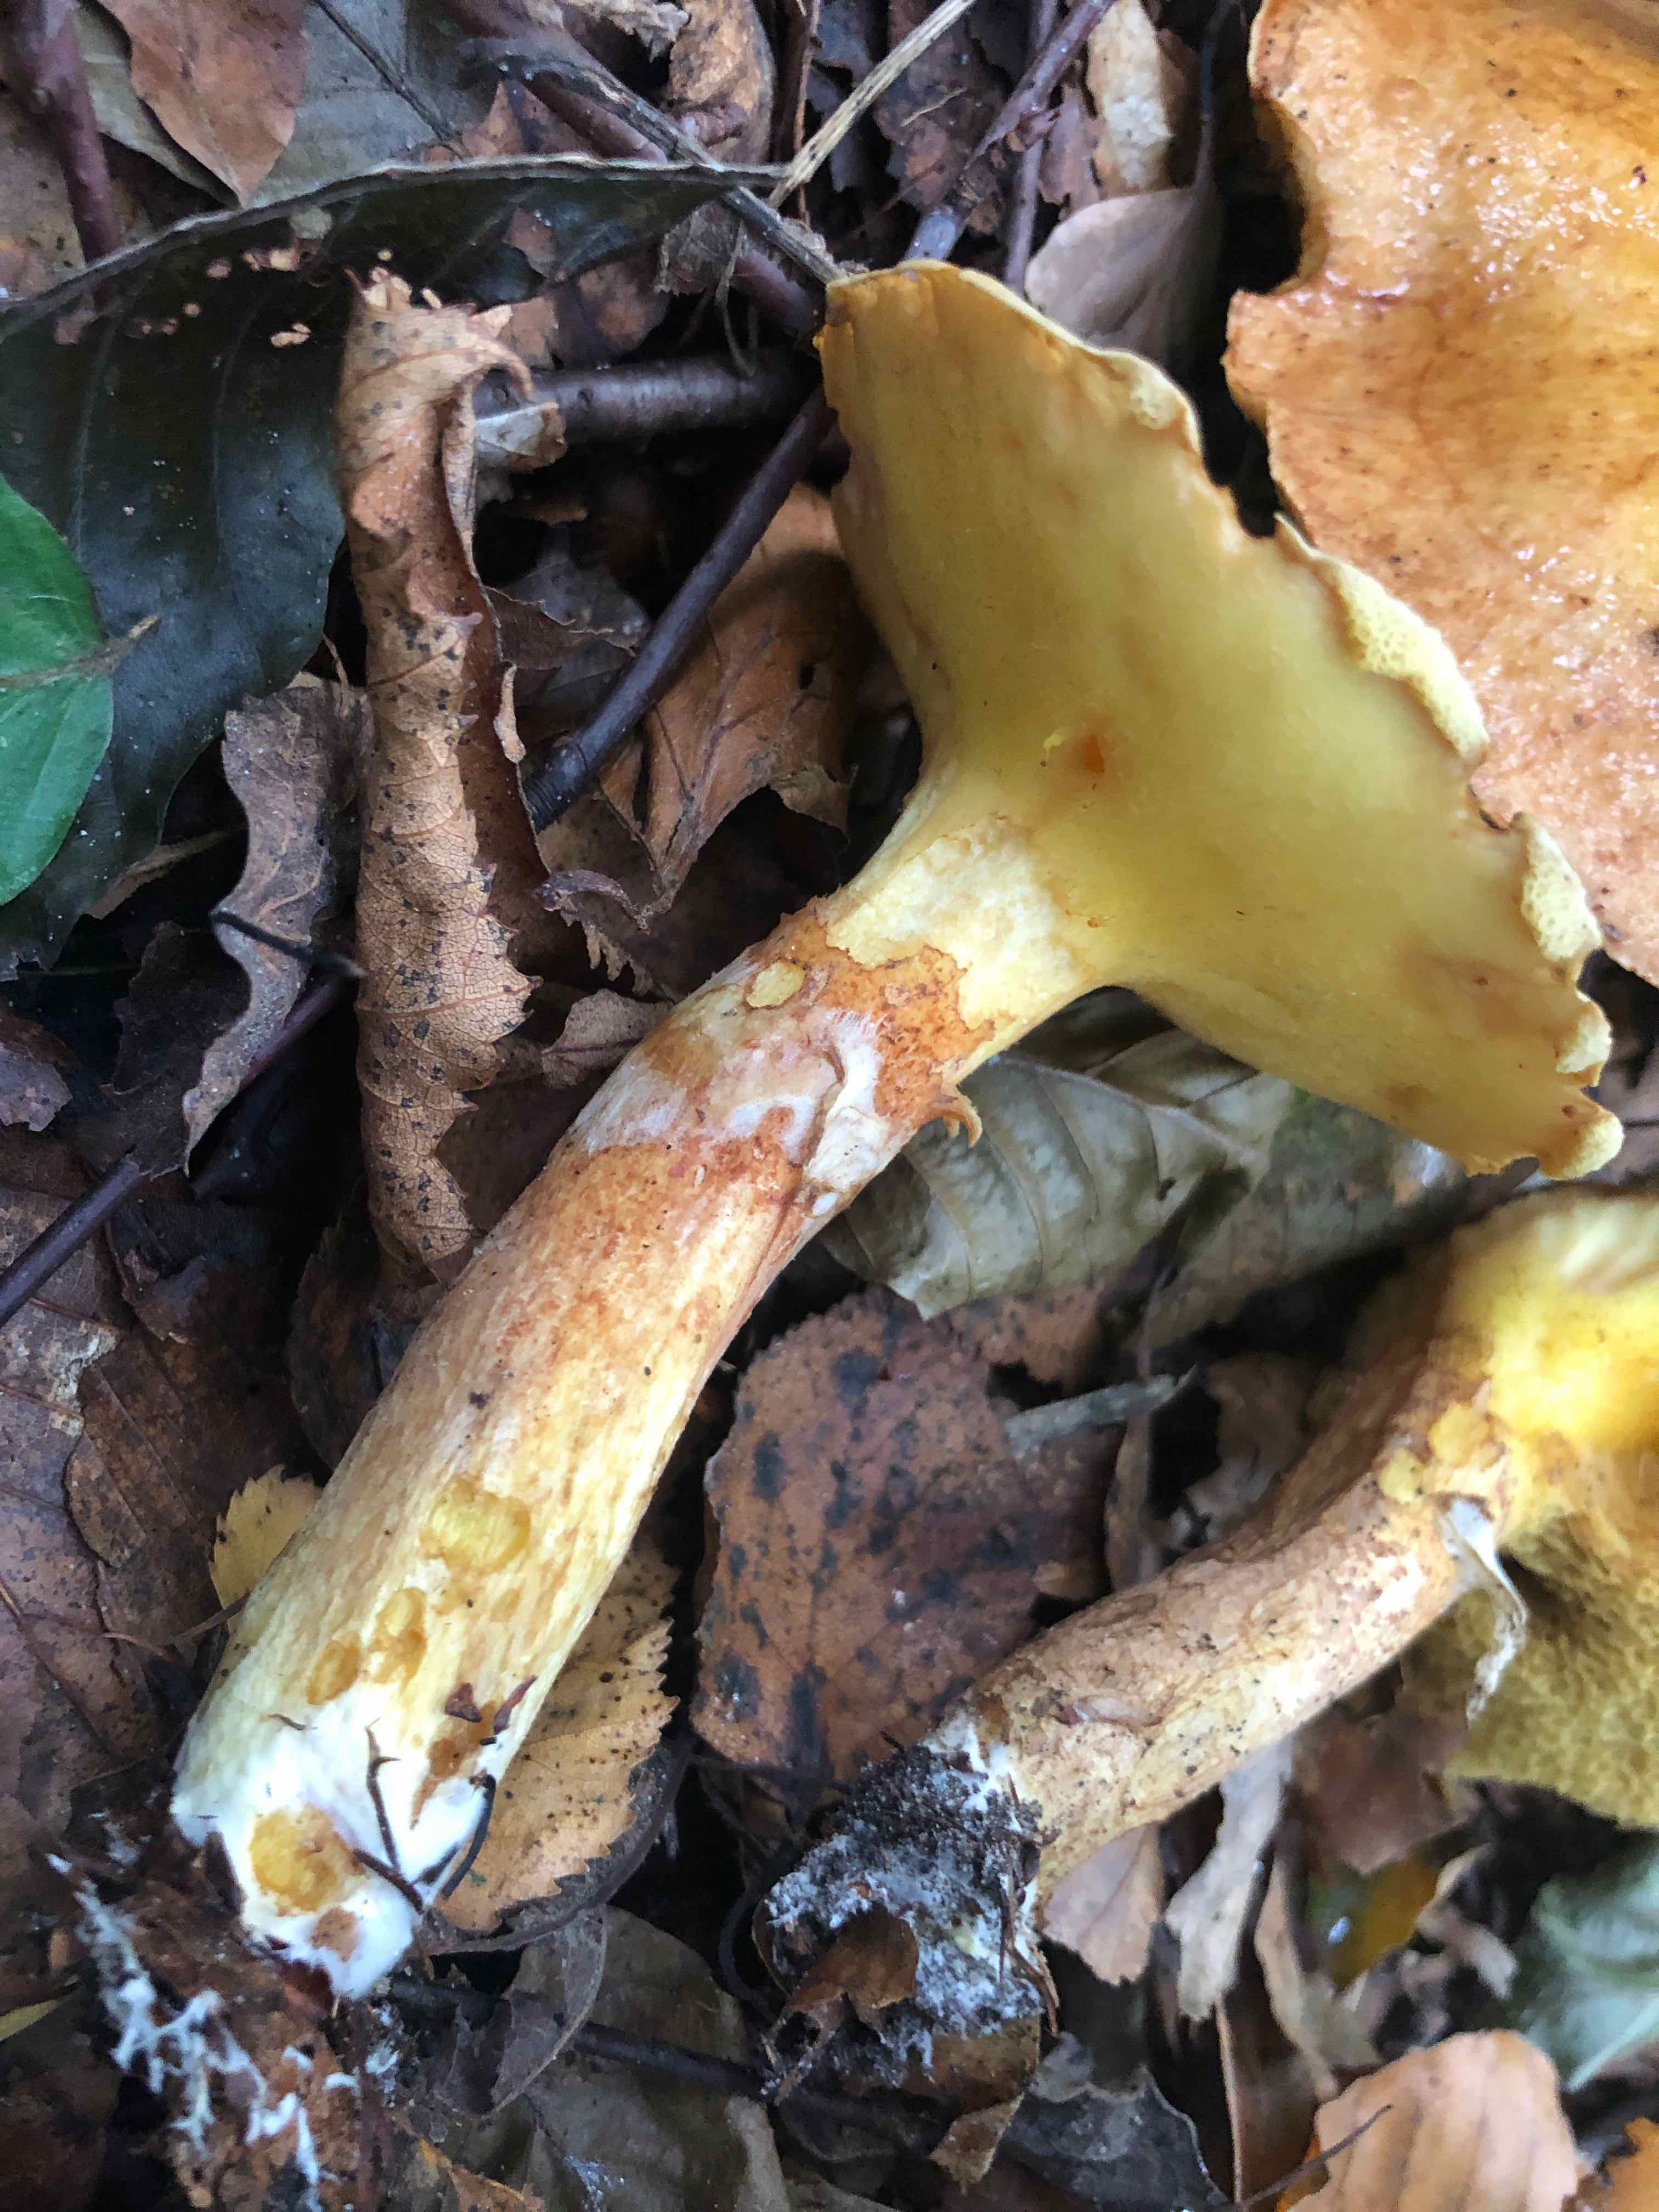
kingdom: Fungi
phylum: Basidiomycota
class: Agaricomycetes
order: Boletales
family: Suillaceae
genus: Suillus
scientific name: Suillus grevillei
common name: lærke-slimrørhat
